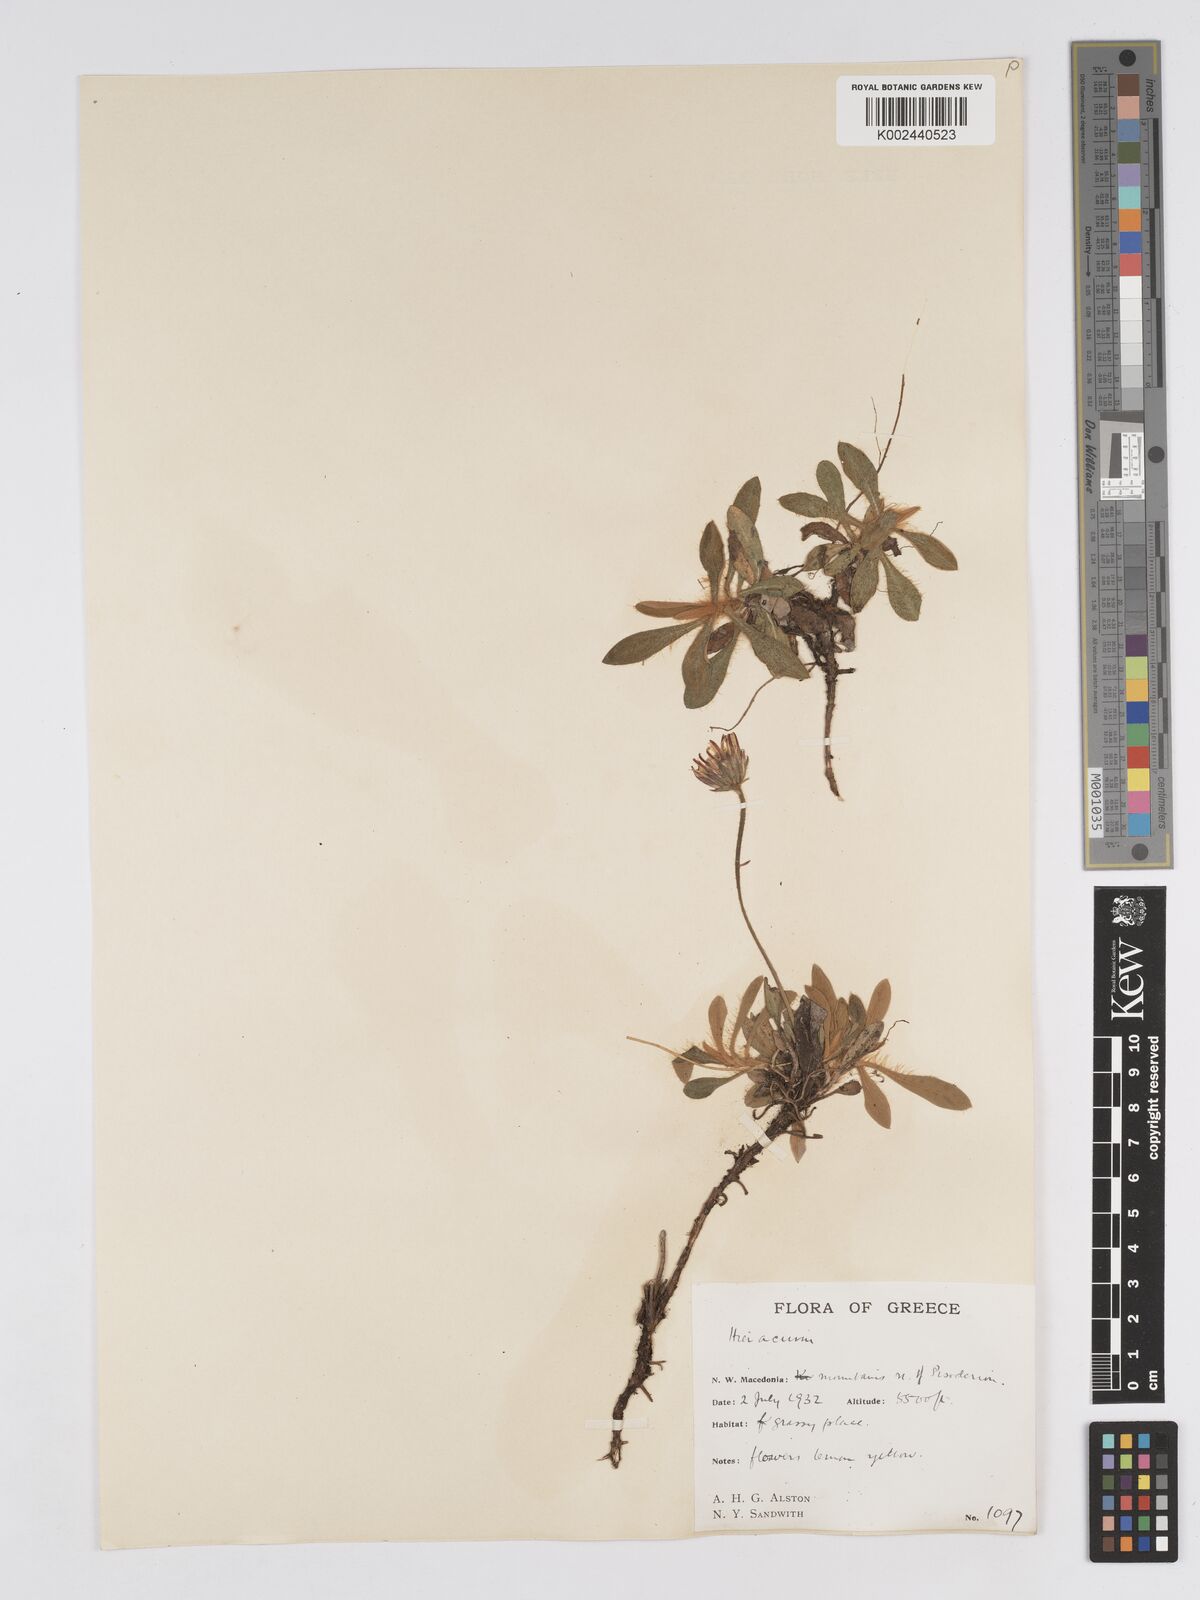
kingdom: Plantae
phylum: Tracheophyta
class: Magnoliopsida
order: Asterales
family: Asteraceae
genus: Pilosella
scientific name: Pilosella velutina
